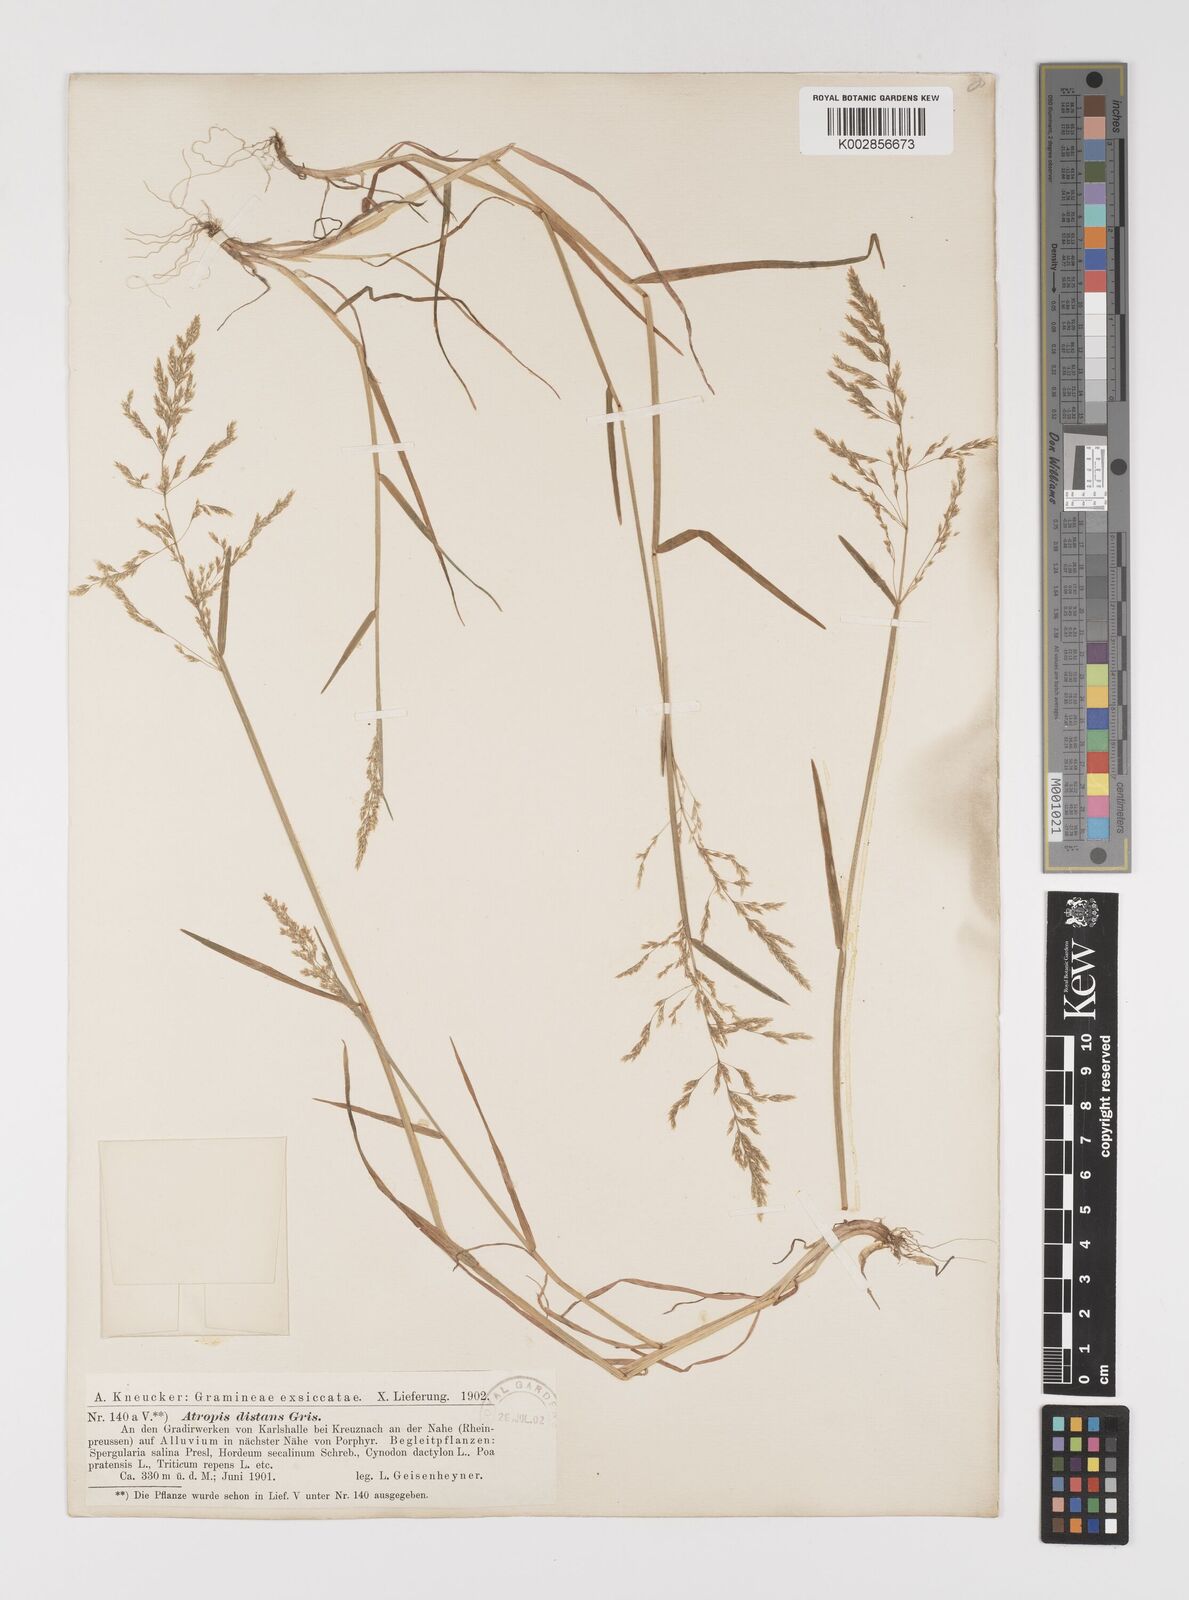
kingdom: Plantae
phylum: Tracheophyta
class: Liliopsida
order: Poales
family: Poaceae
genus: Puccinellia
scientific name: Puccinellia
